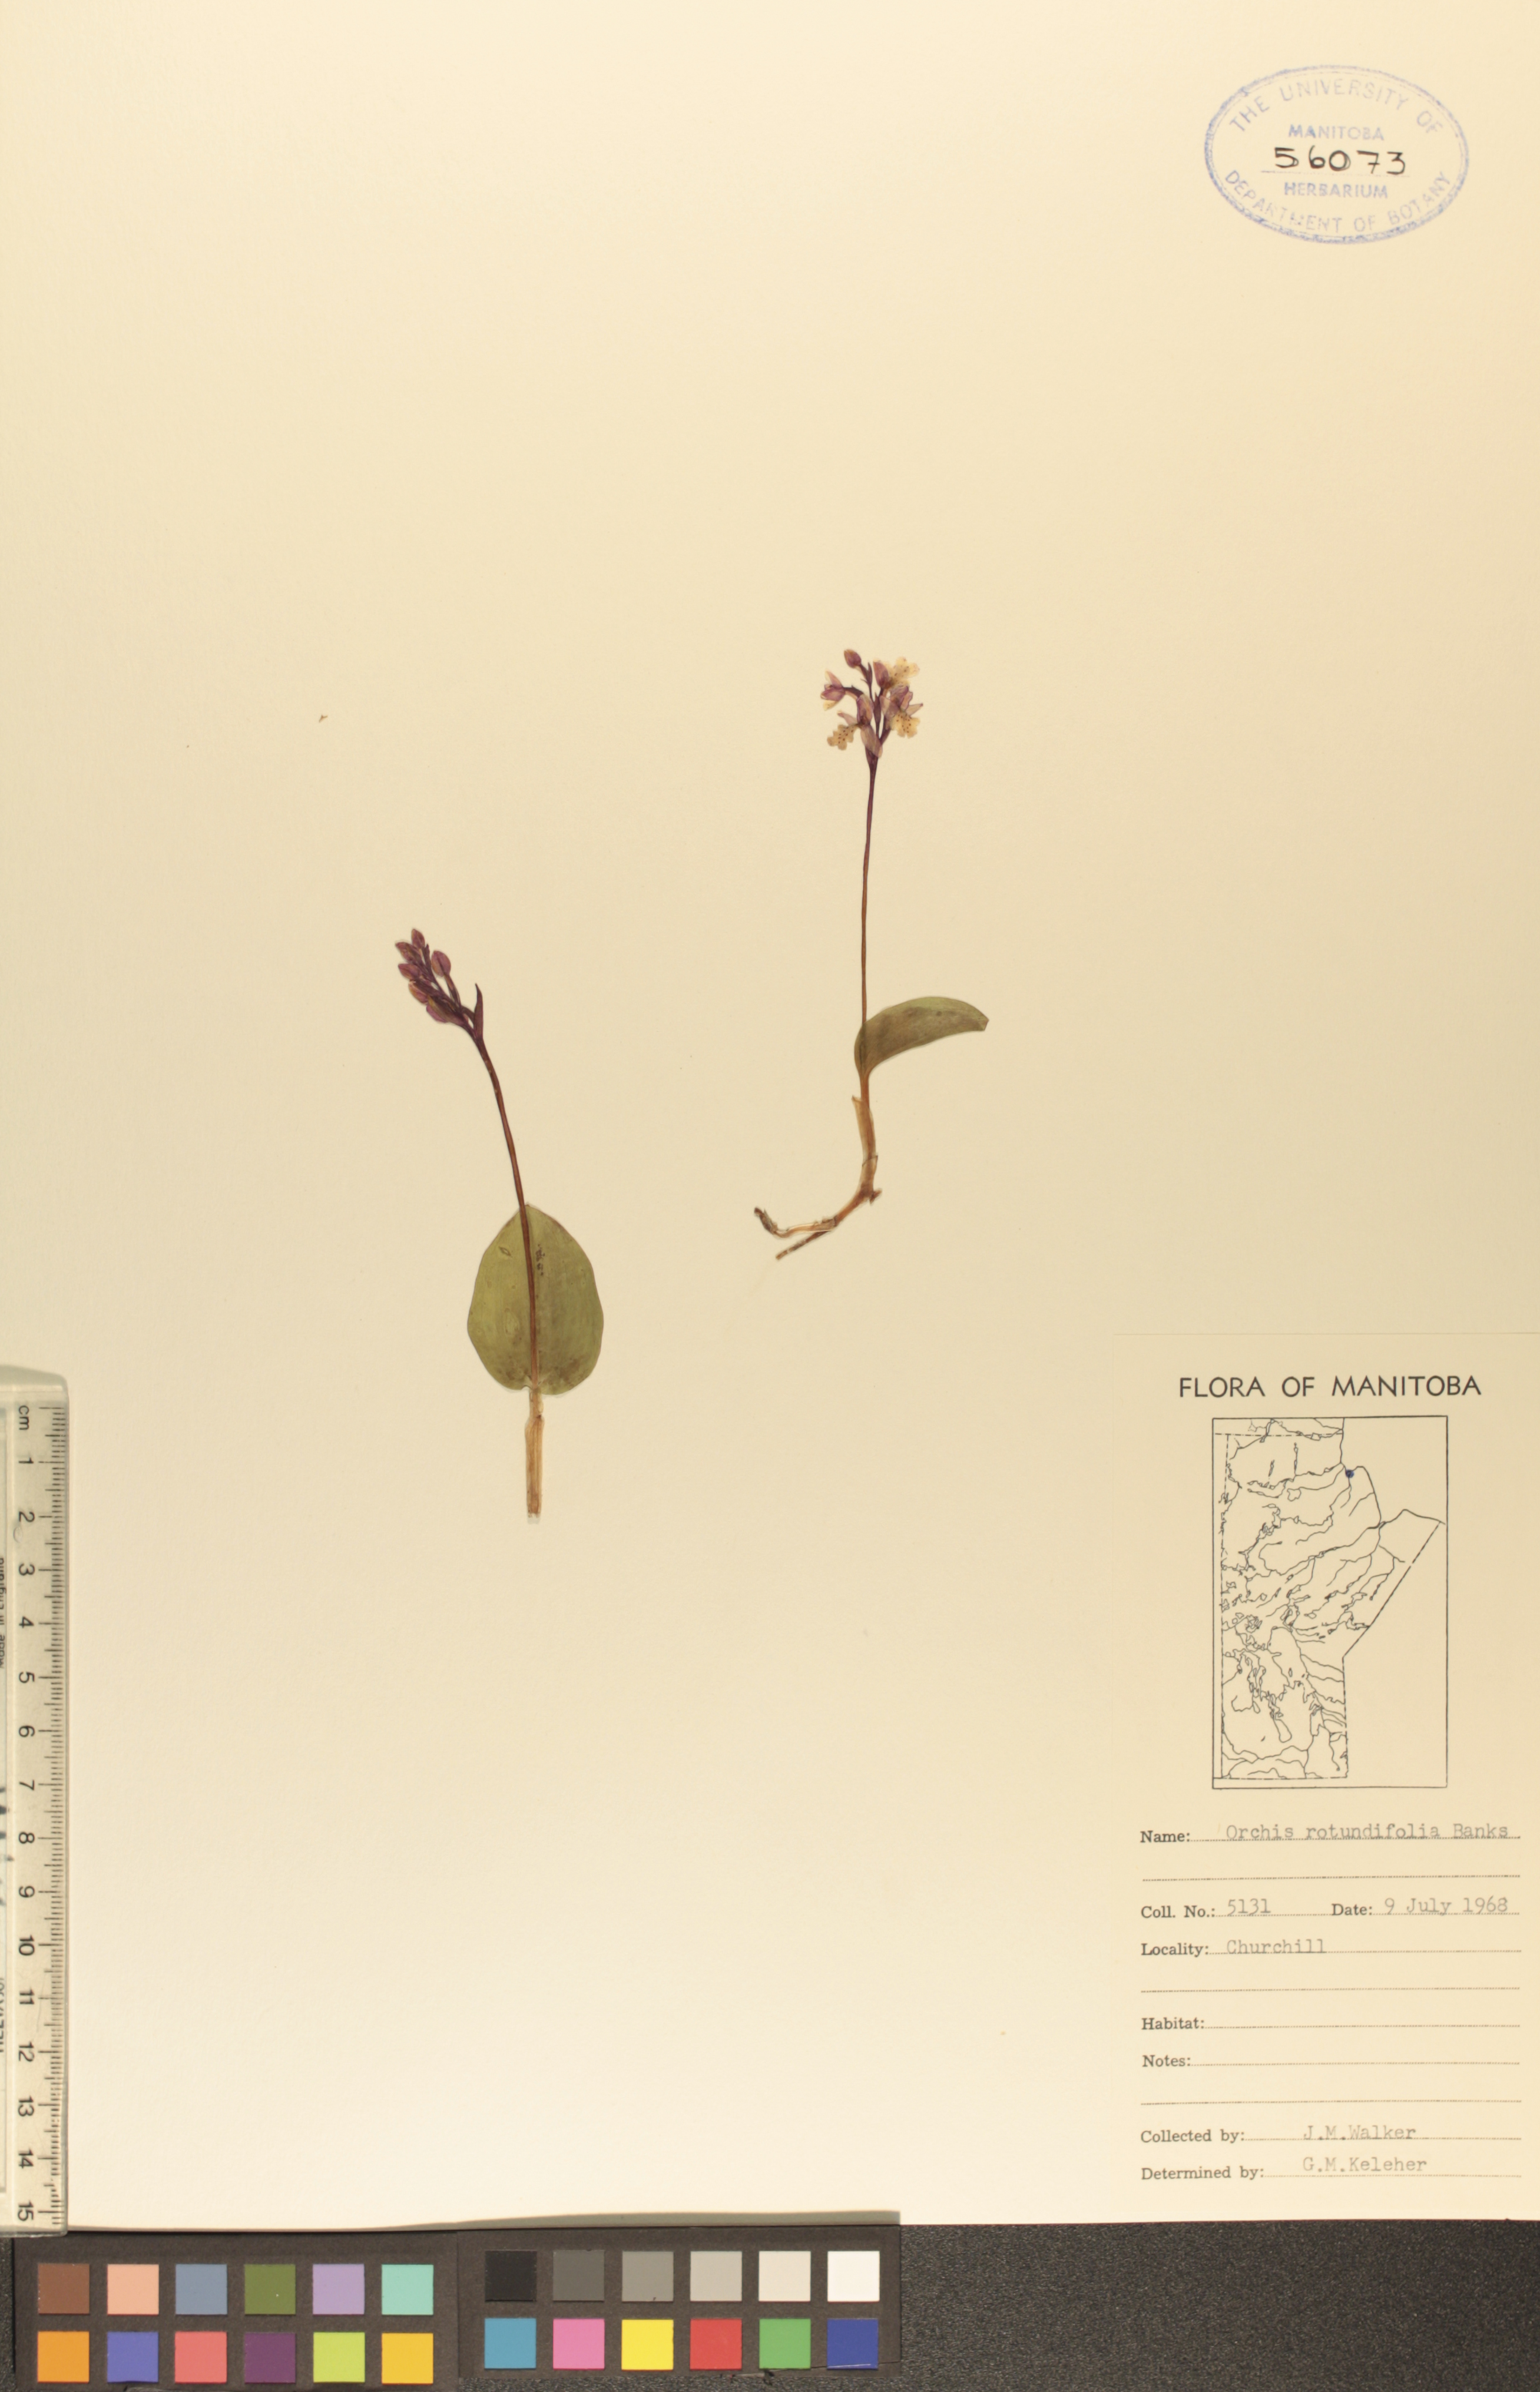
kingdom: Plantae
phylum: Tracheophyta
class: Liliopsida
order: Asparagales
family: Orchidaceae
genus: Galearis
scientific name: Galearis rotundifolia
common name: One-leaved orchis
